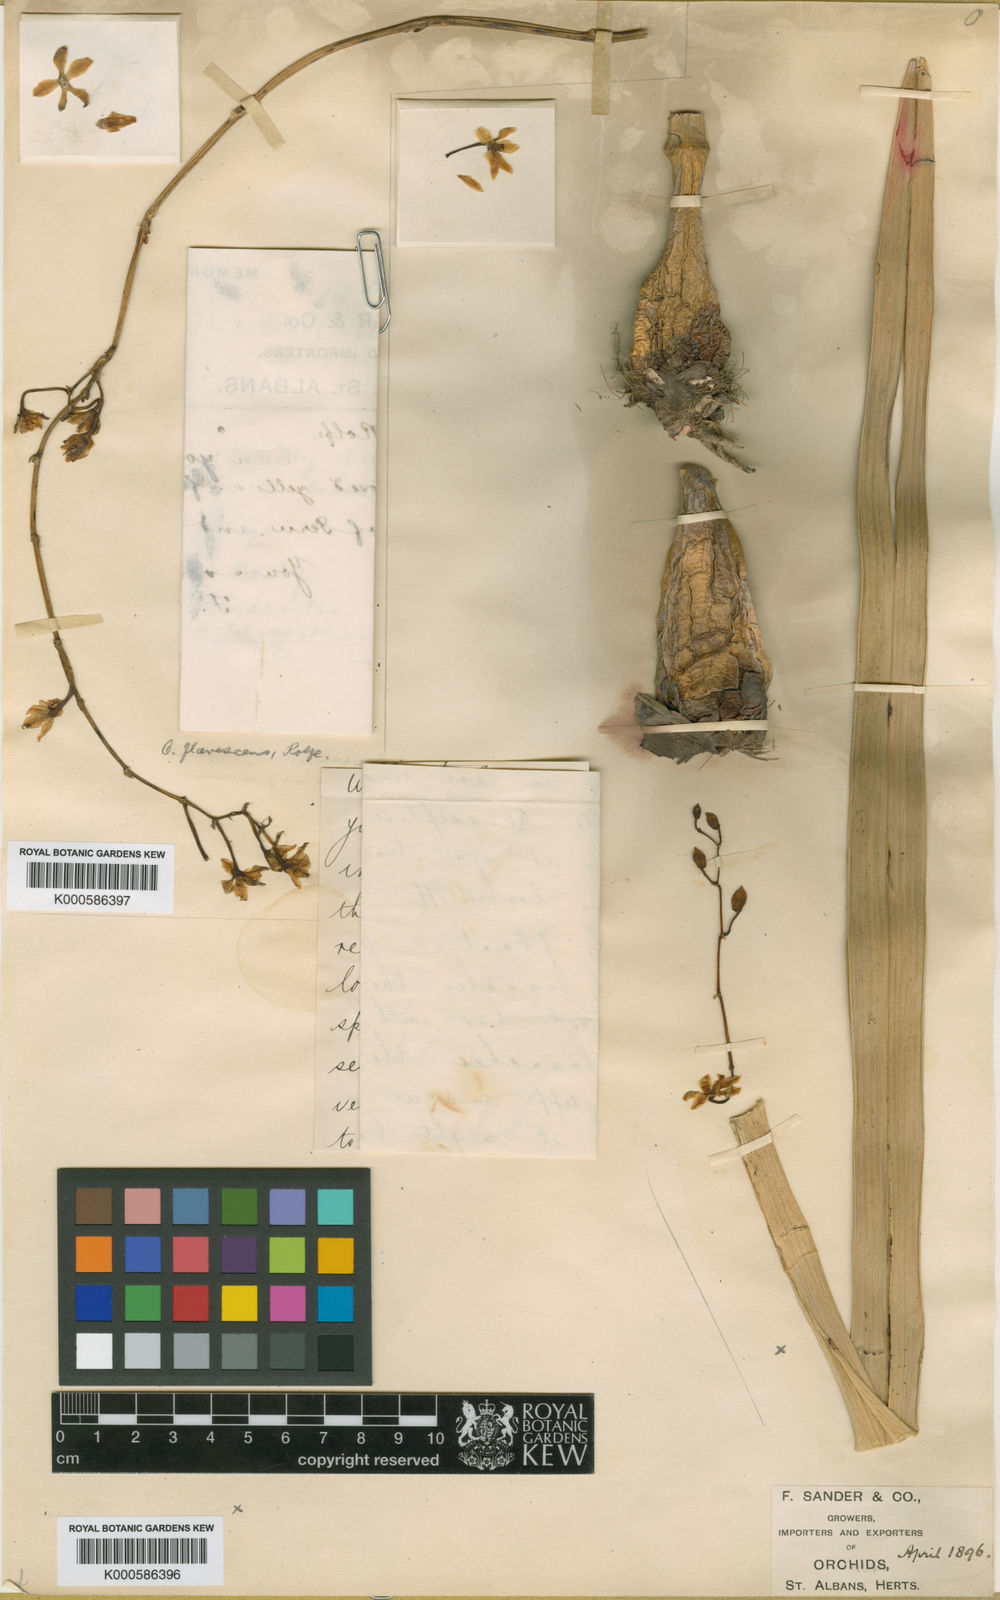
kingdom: Plantae
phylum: Tracheophyta
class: Liliopsida
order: Asparagales
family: Orchidaceae
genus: Cyrtochilum
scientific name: Cyrtochilum longipes
